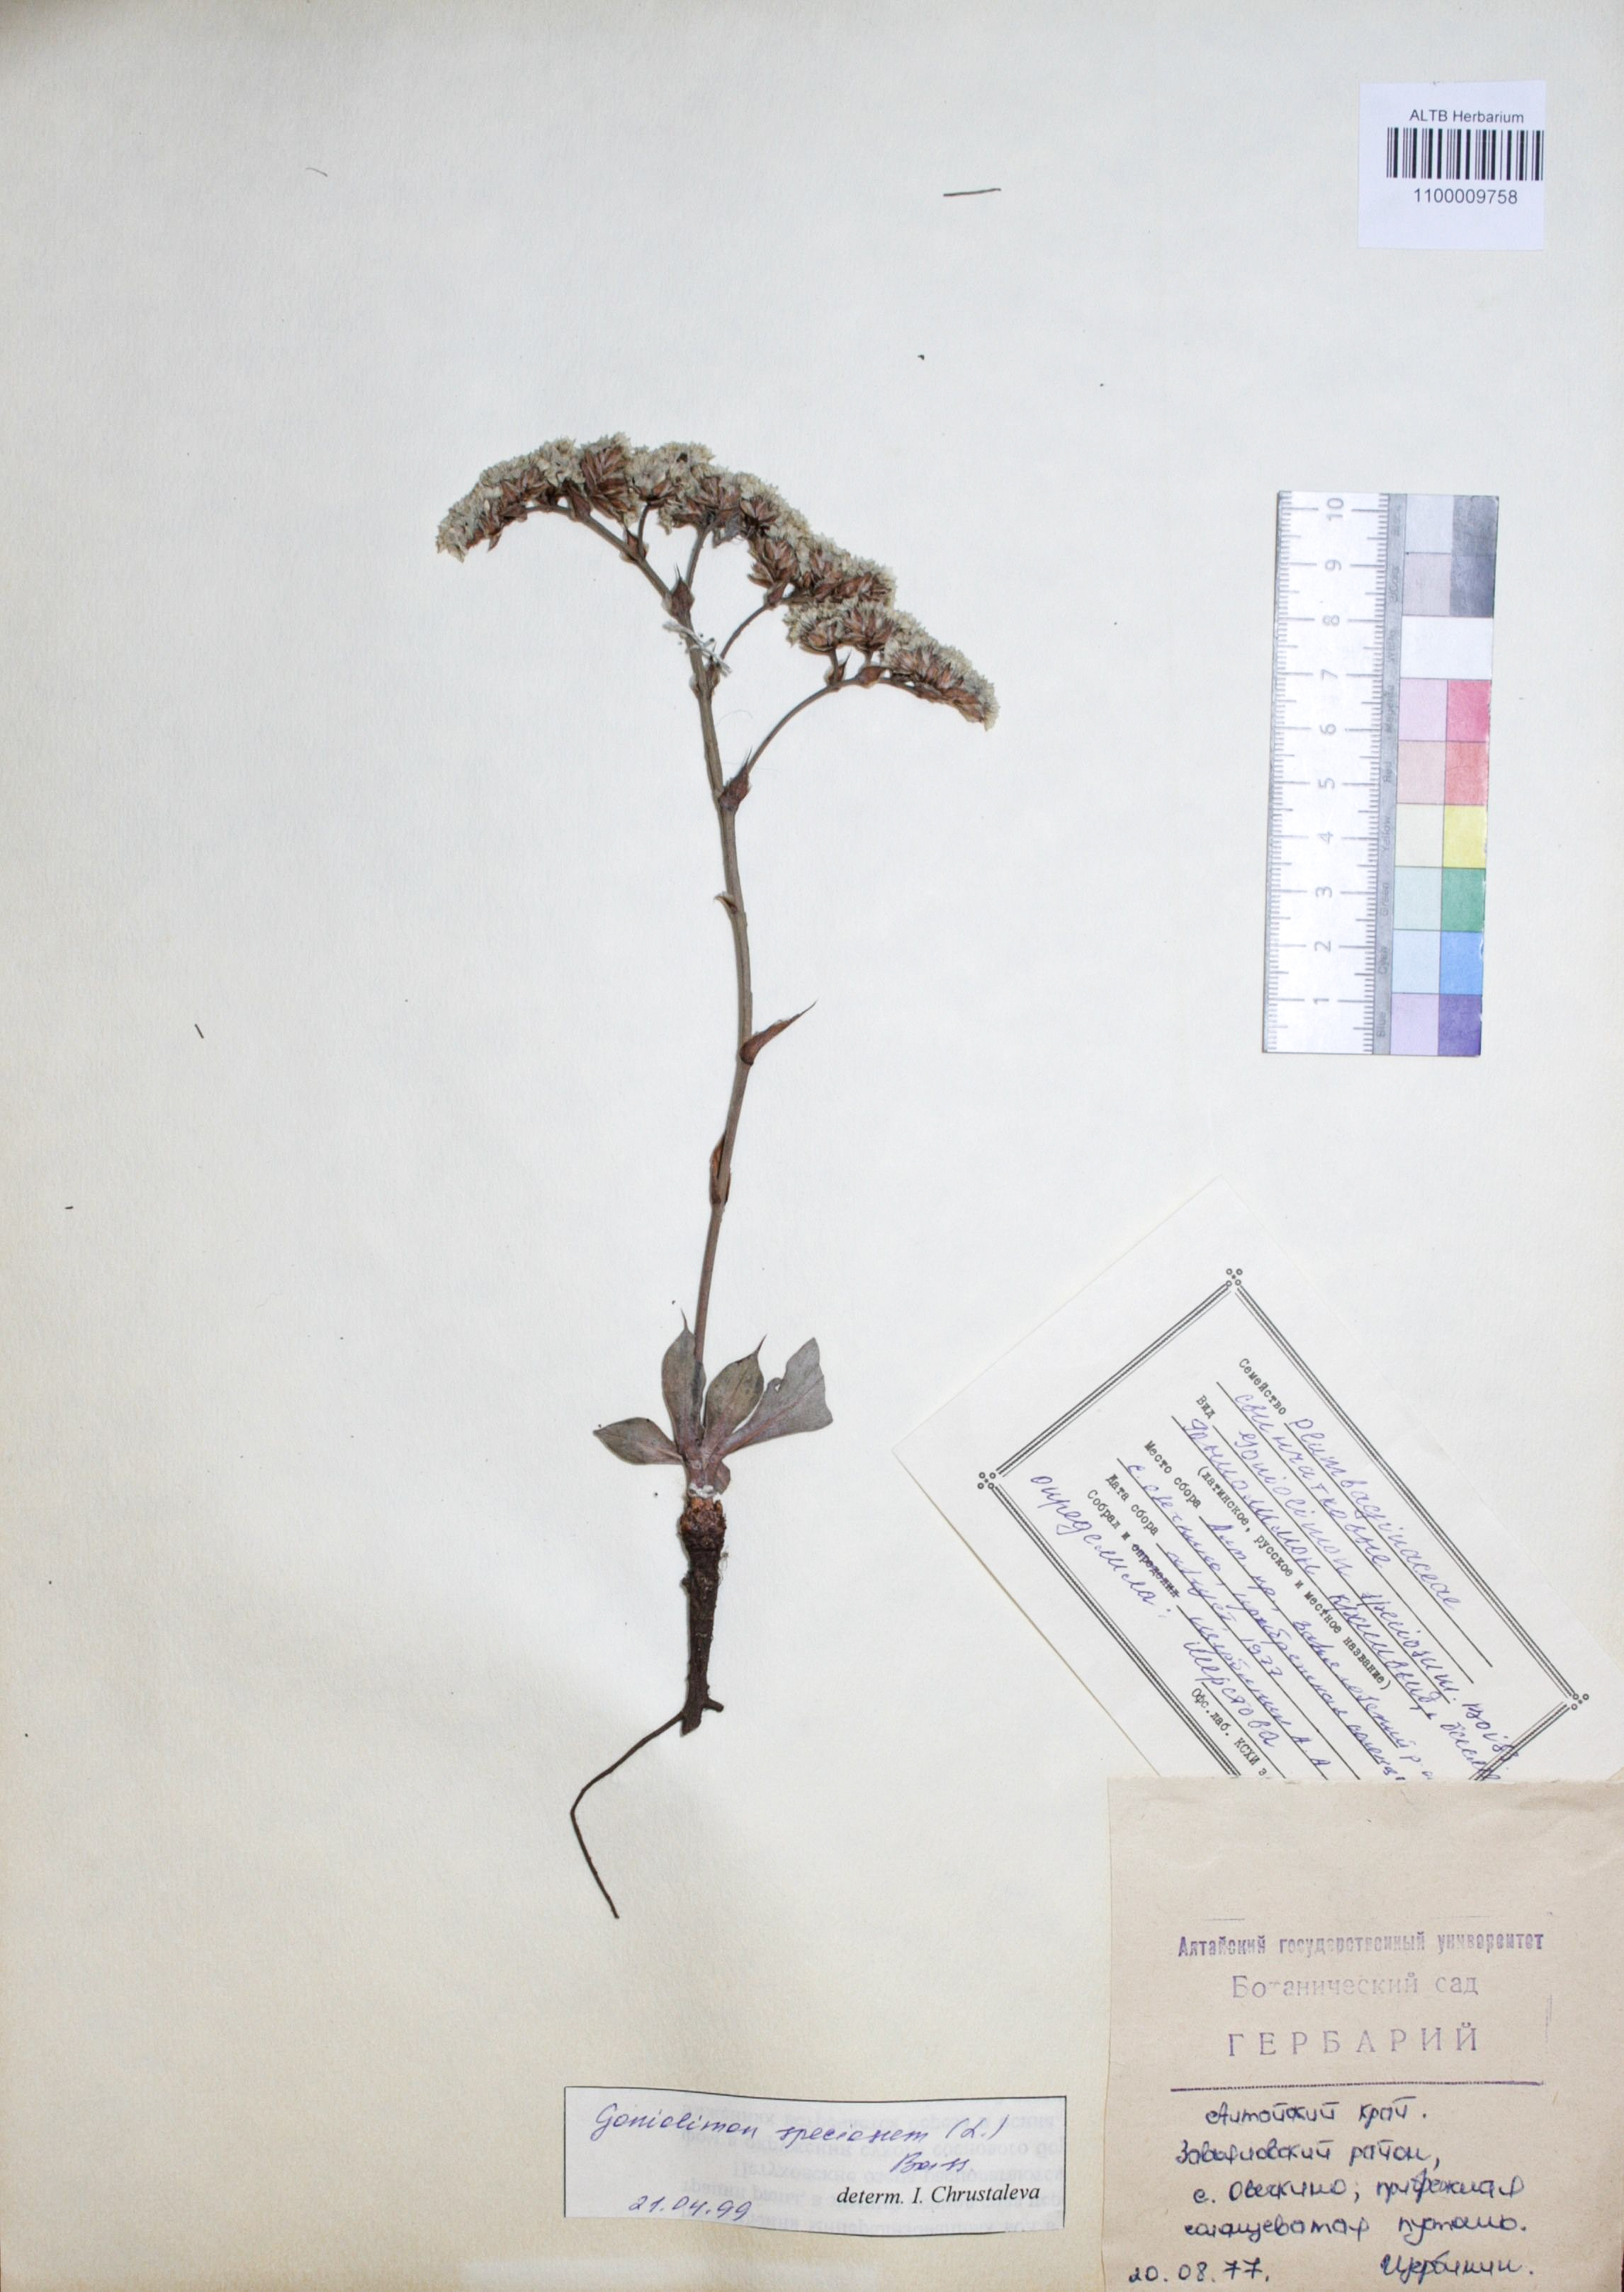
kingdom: Plantae
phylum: Tracheophyta
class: Magnoliopsida
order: Caryophyllales
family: Plumbaginaceae
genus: Goniolimon
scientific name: Goniolimon speciosum
